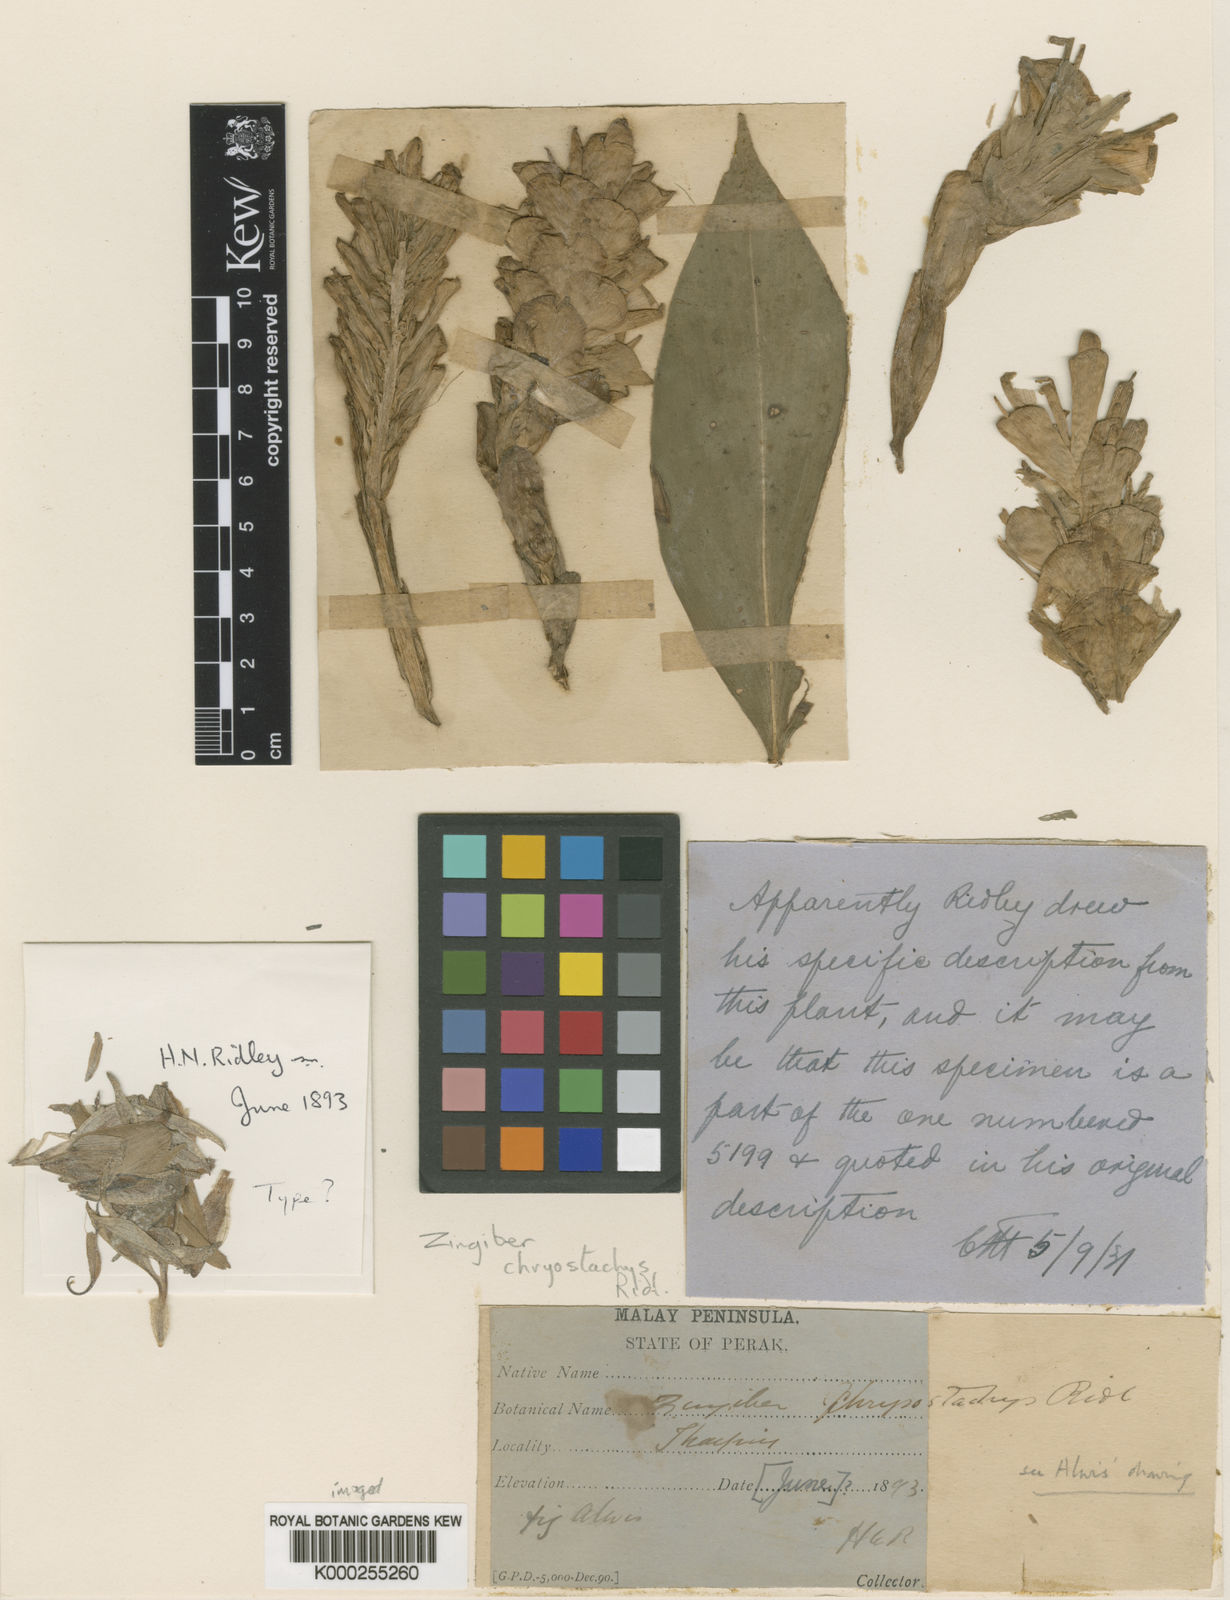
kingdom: Plantae
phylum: Tracheophyta
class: Liliopsida
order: Zingiberales
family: Zingiberaceae
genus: Zingiber
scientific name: Zingiber chrysostachys
